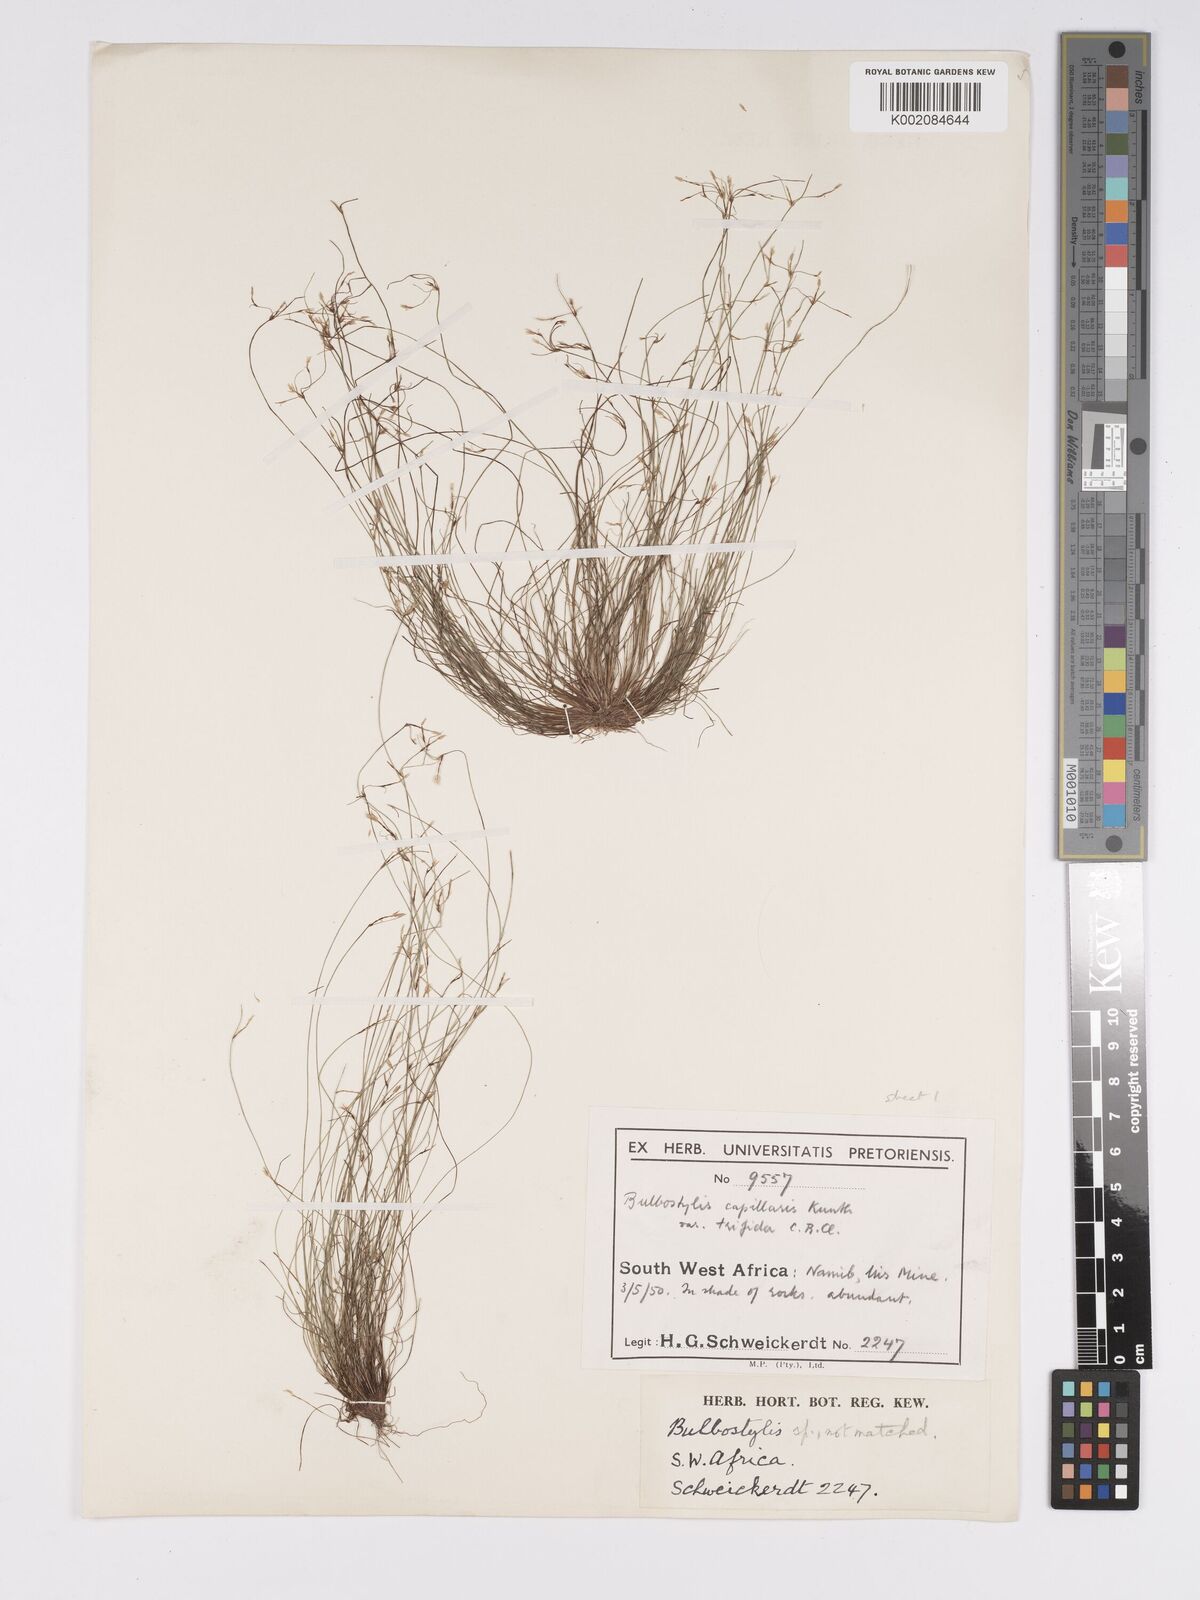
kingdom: Plantae
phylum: Tracheophyta
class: Liliopsida
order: Poales
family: Cyperaceae
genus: Bulbostylis
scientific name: Bulbostylis mucronata
